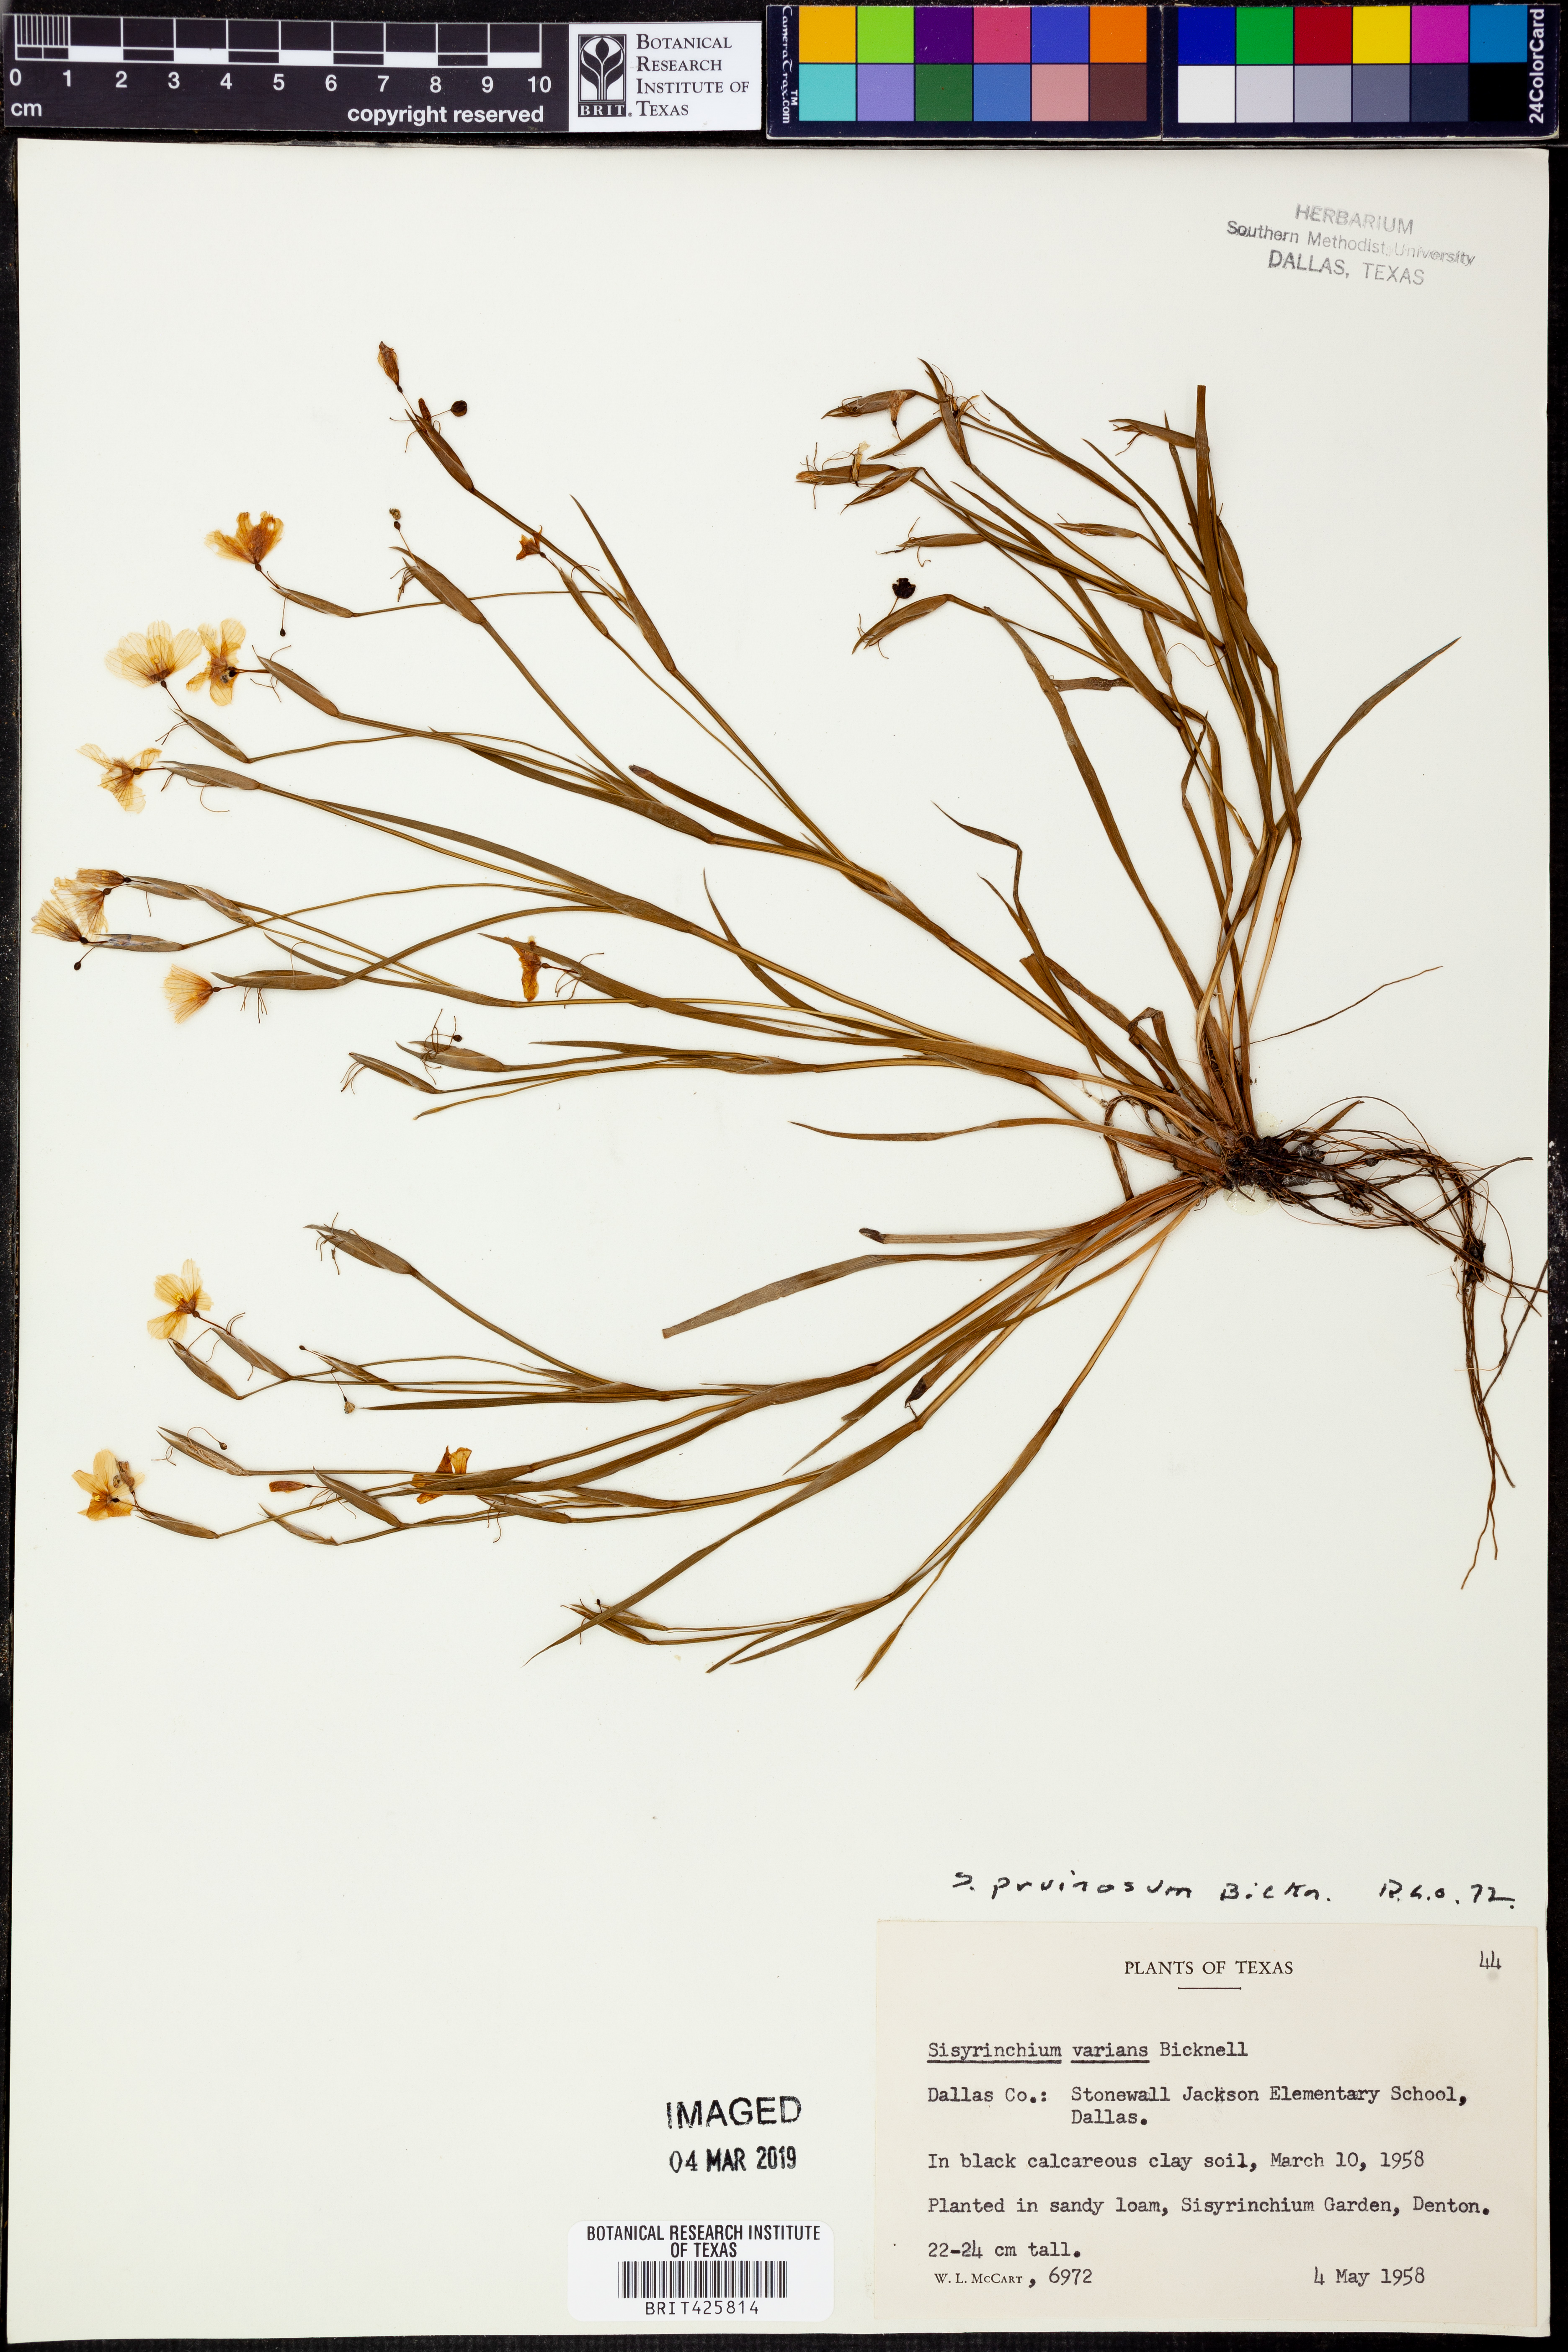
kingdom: Plantae
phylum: Tracheophyta
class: Liliopsida
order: Asparagales
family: Iridaceae
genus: Sisyrinchium
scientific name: Sisyrinchium pruinosum
